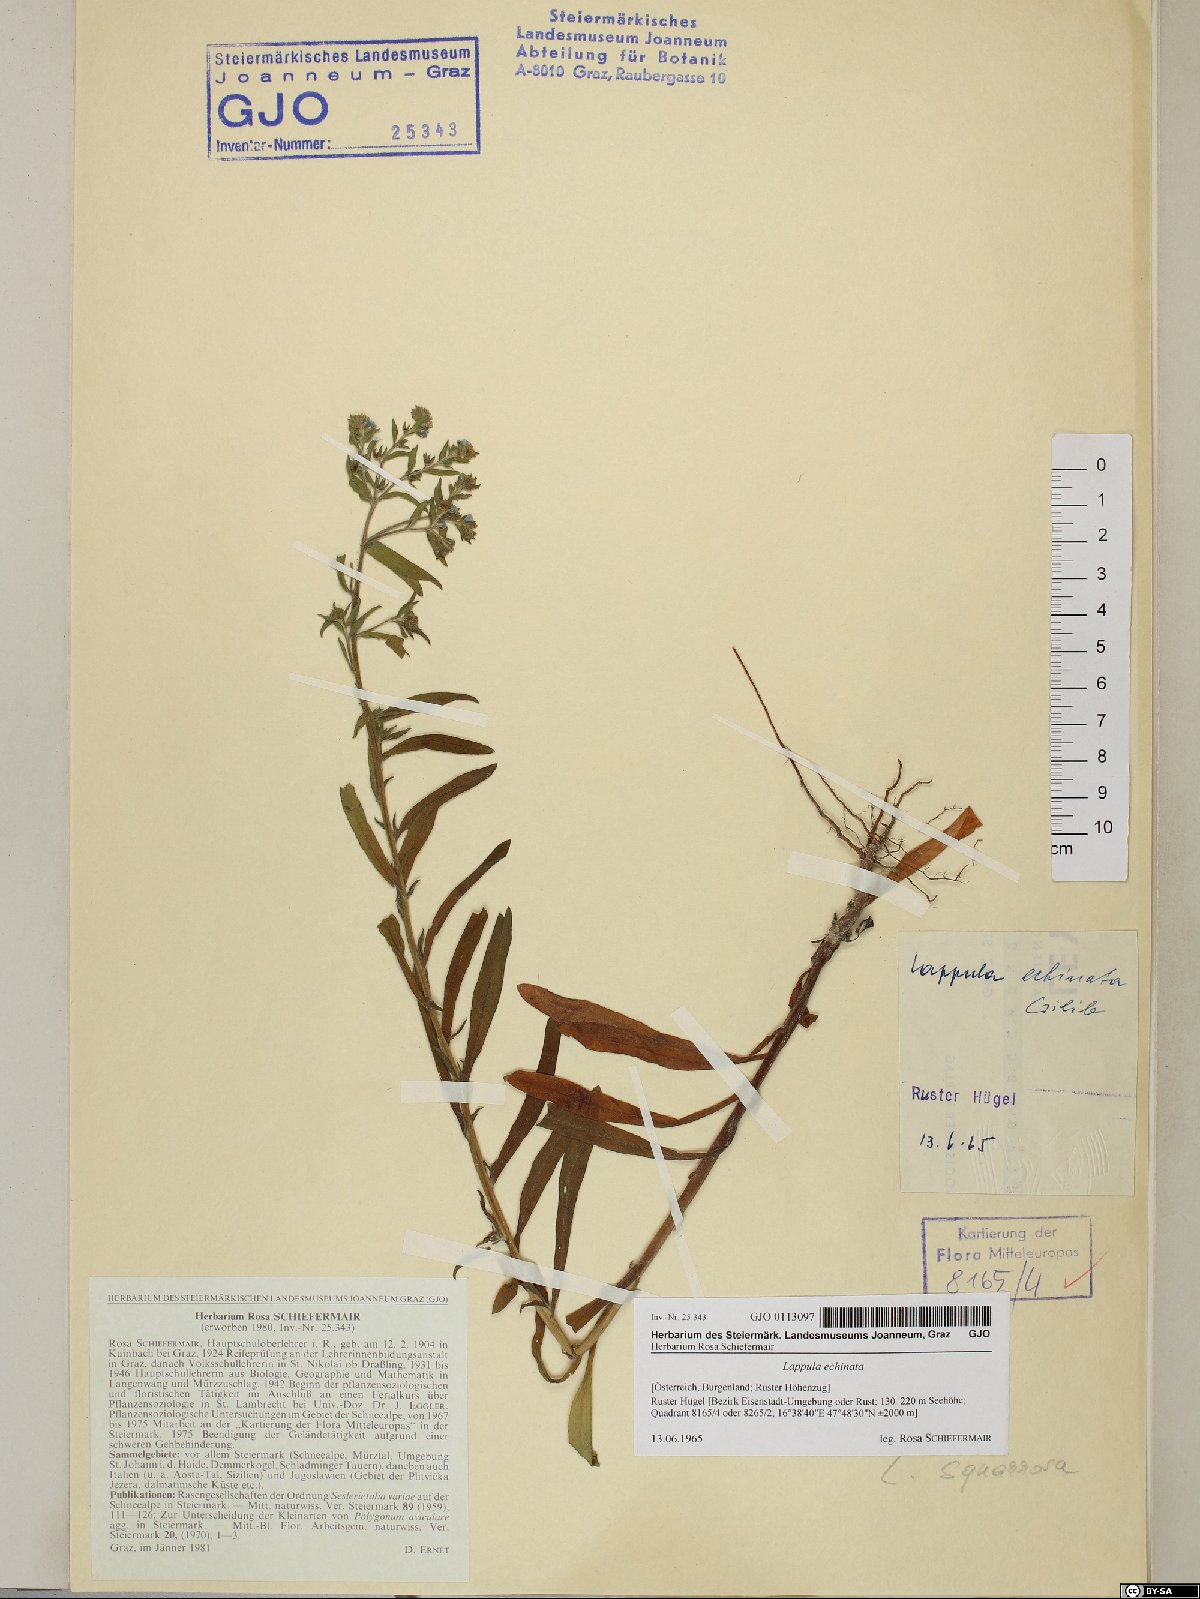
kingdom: Plantae
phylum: Tracheophyta
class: Magnoliopsida
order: Boraginales
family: Boraginaceae
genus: Lappula
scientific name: Lappula squarrosa
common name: European stickseed
